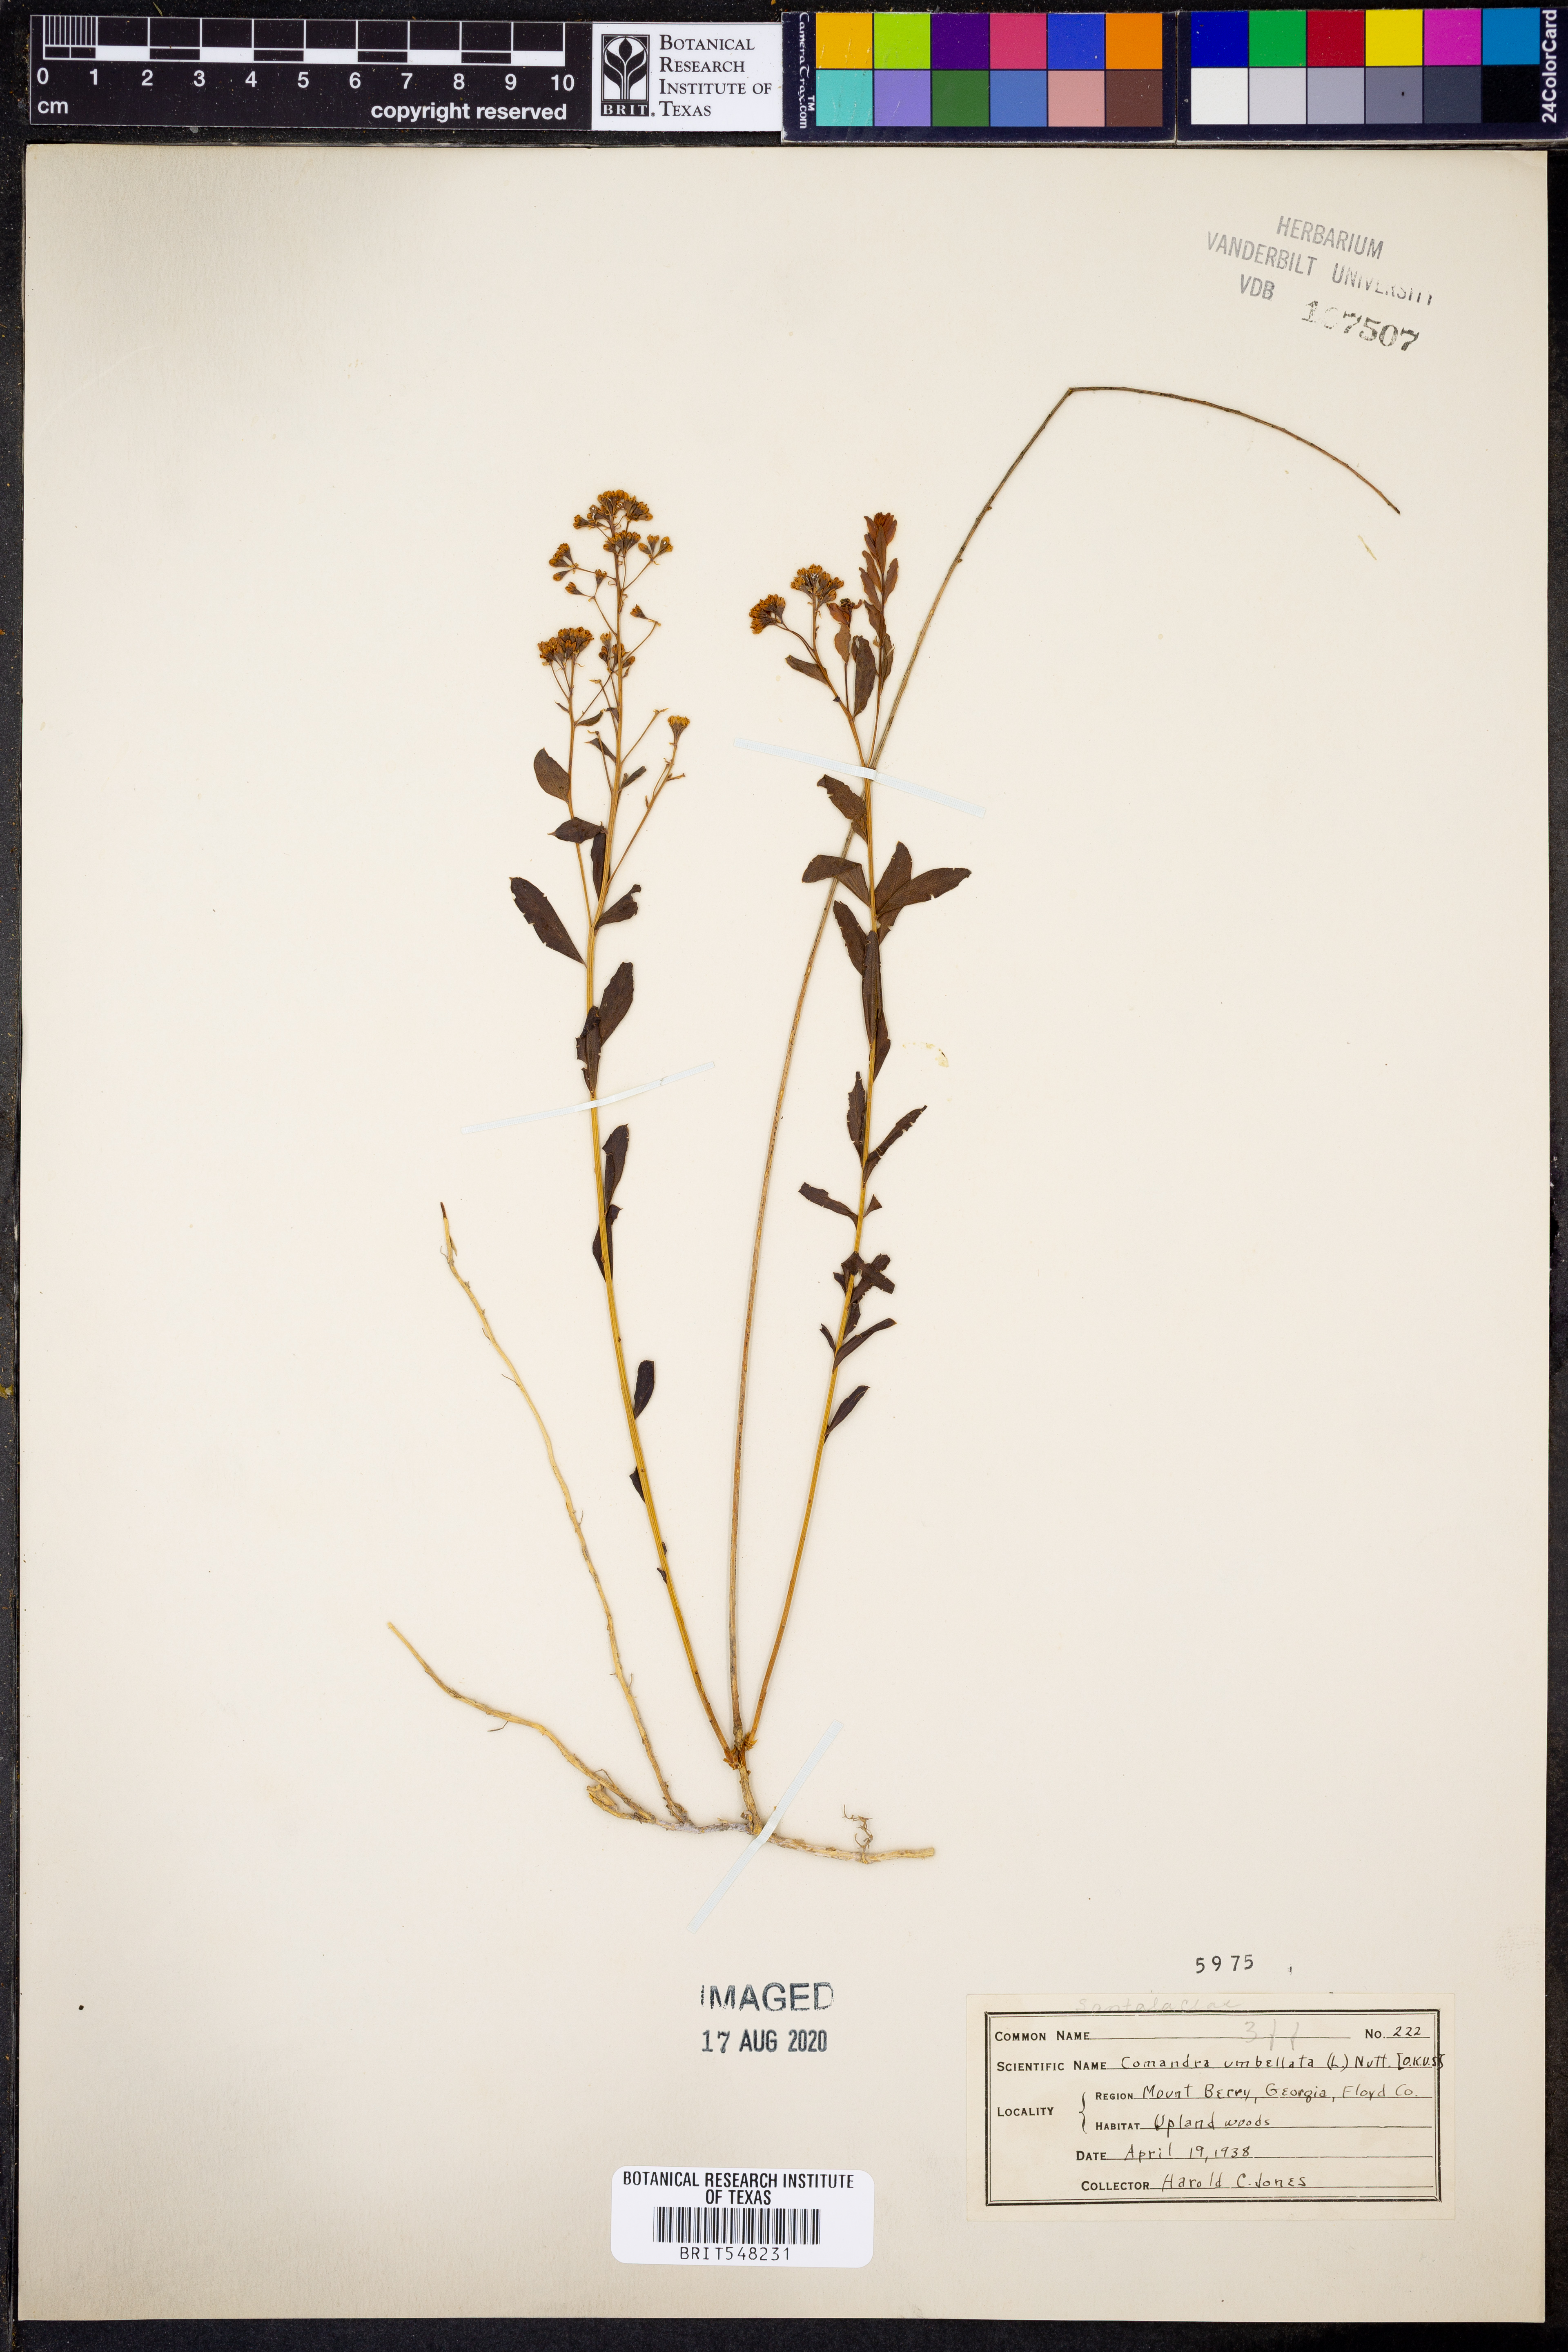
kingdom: Plantae
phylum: Tracheophyta
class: Magnoliopsida
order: Santalales
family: Comandraceae
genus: Comandra
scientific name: Comandra umbellata
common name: Bastard toadflax
